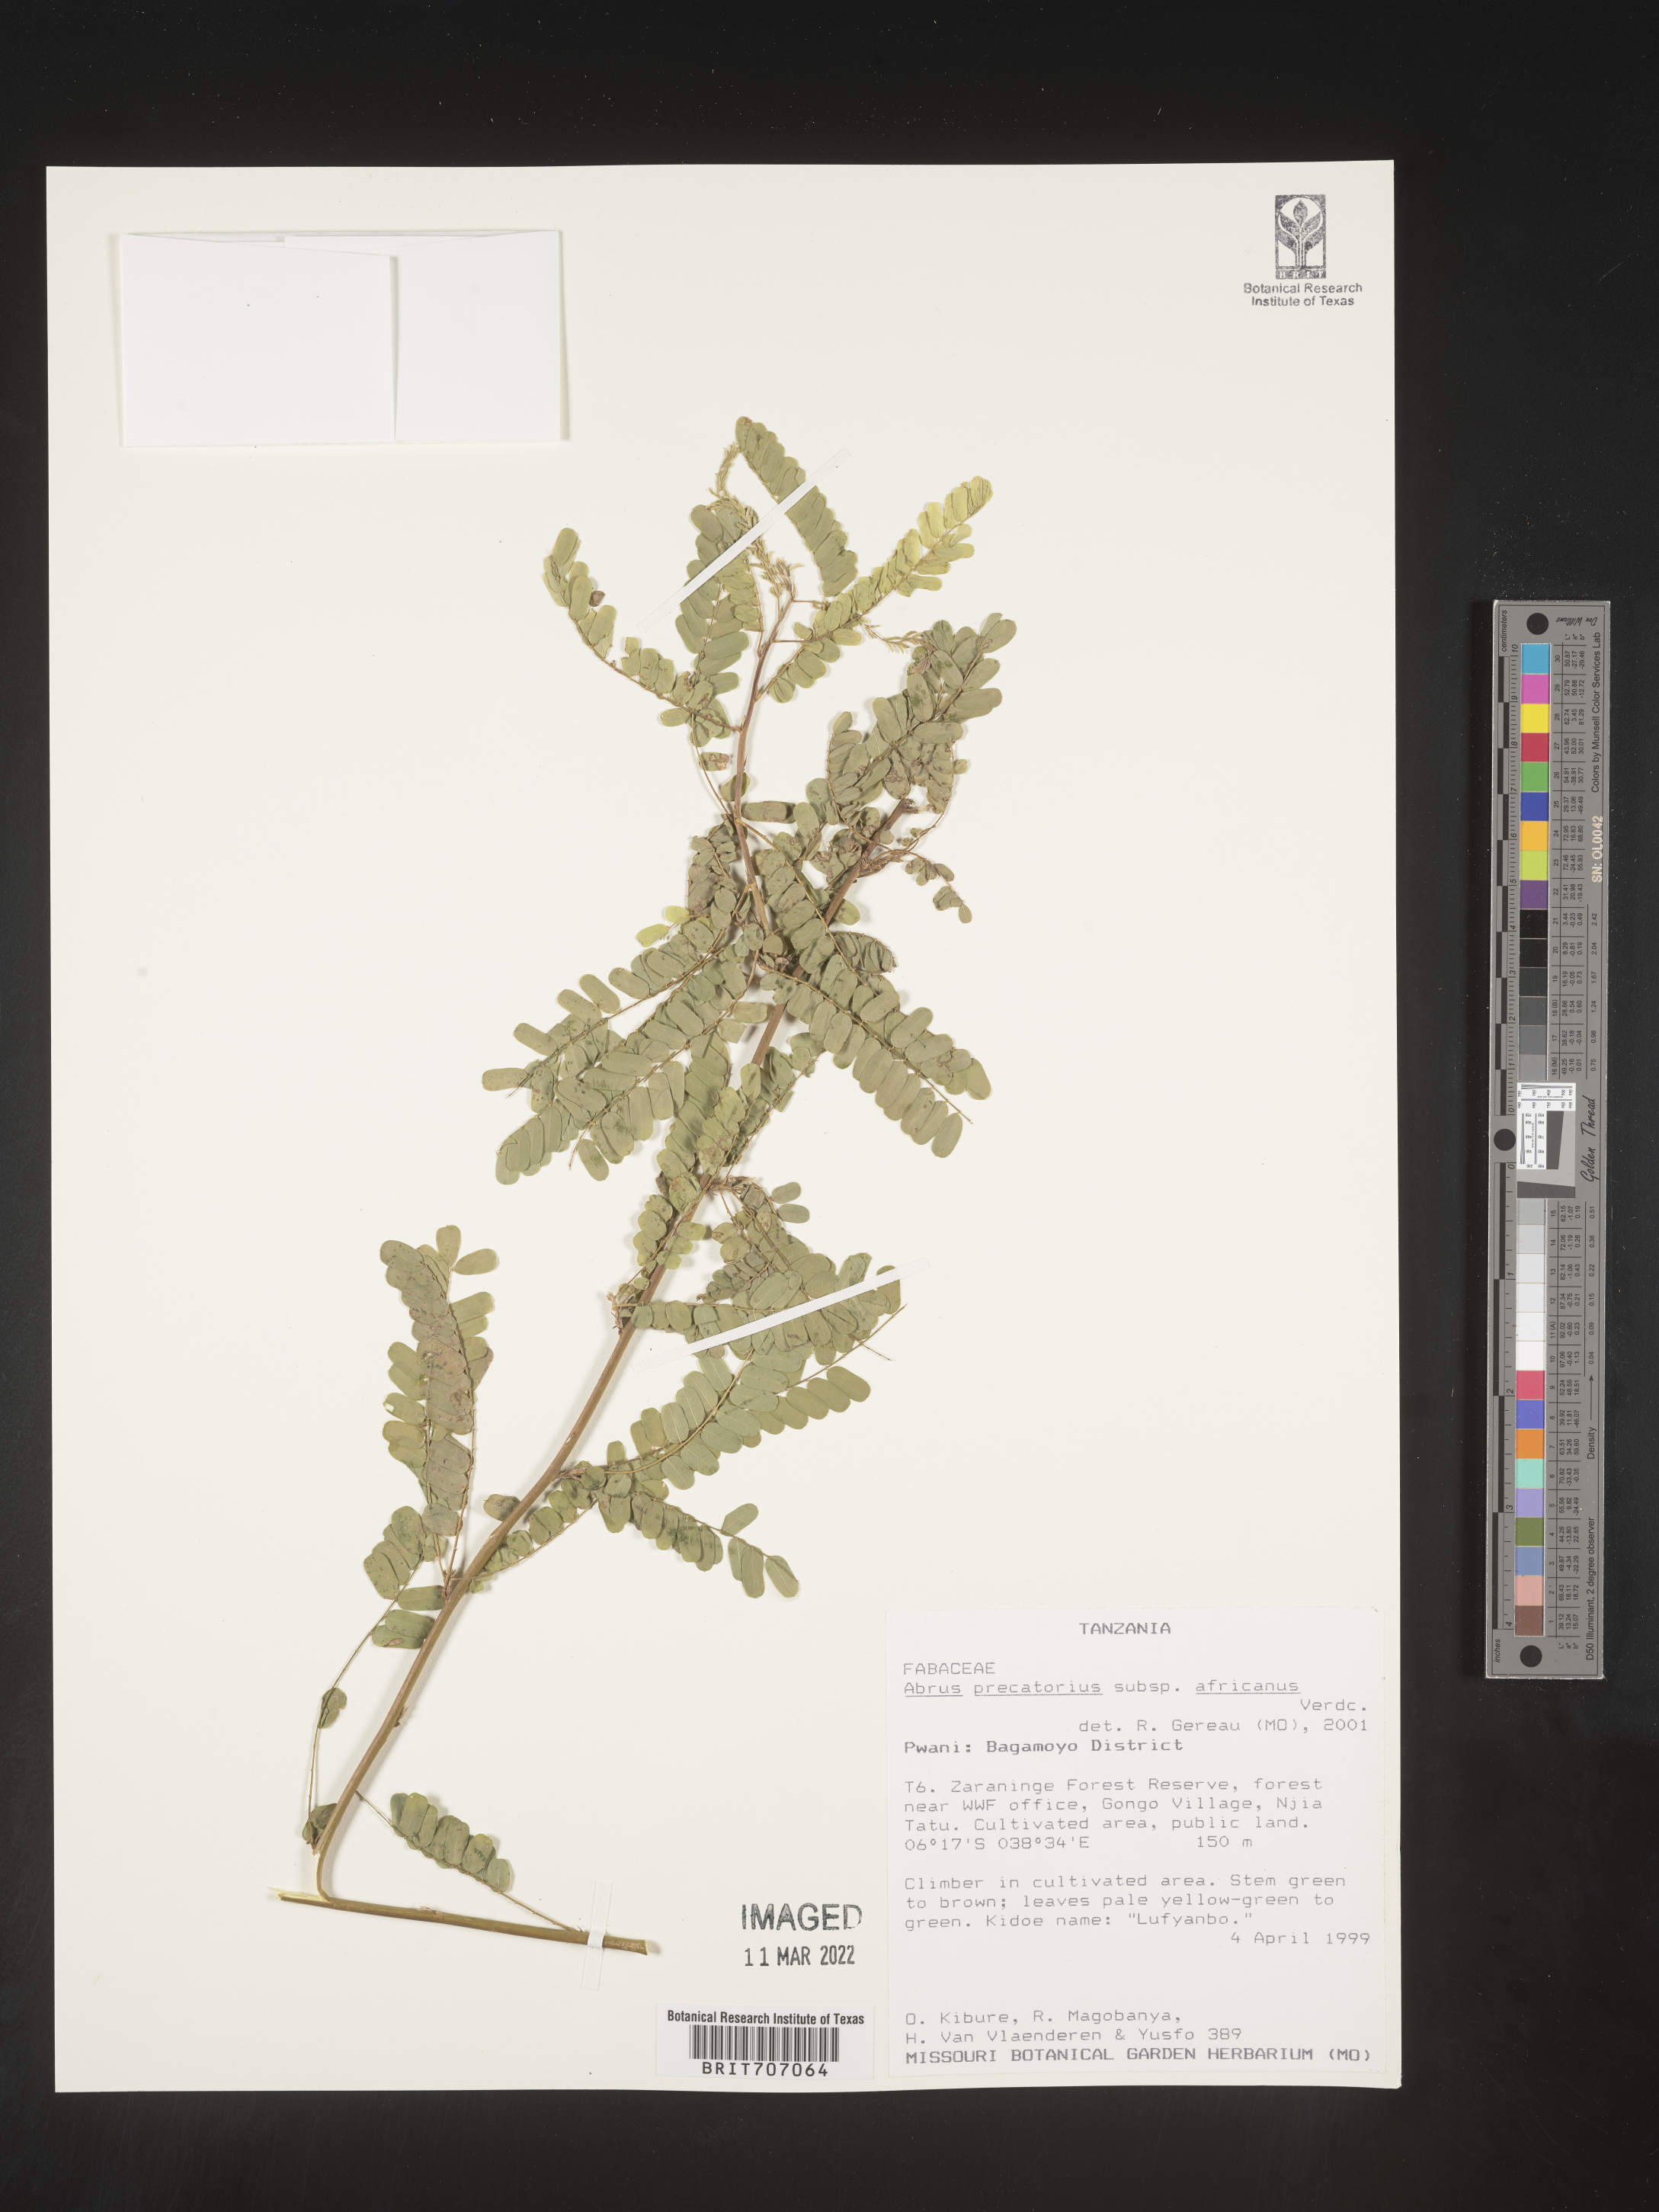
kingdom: Plantae
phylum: Tracheophyta
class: Magnoliopsida
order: Fabales
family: Fabaceae
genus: Abrus
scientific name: Abrus
